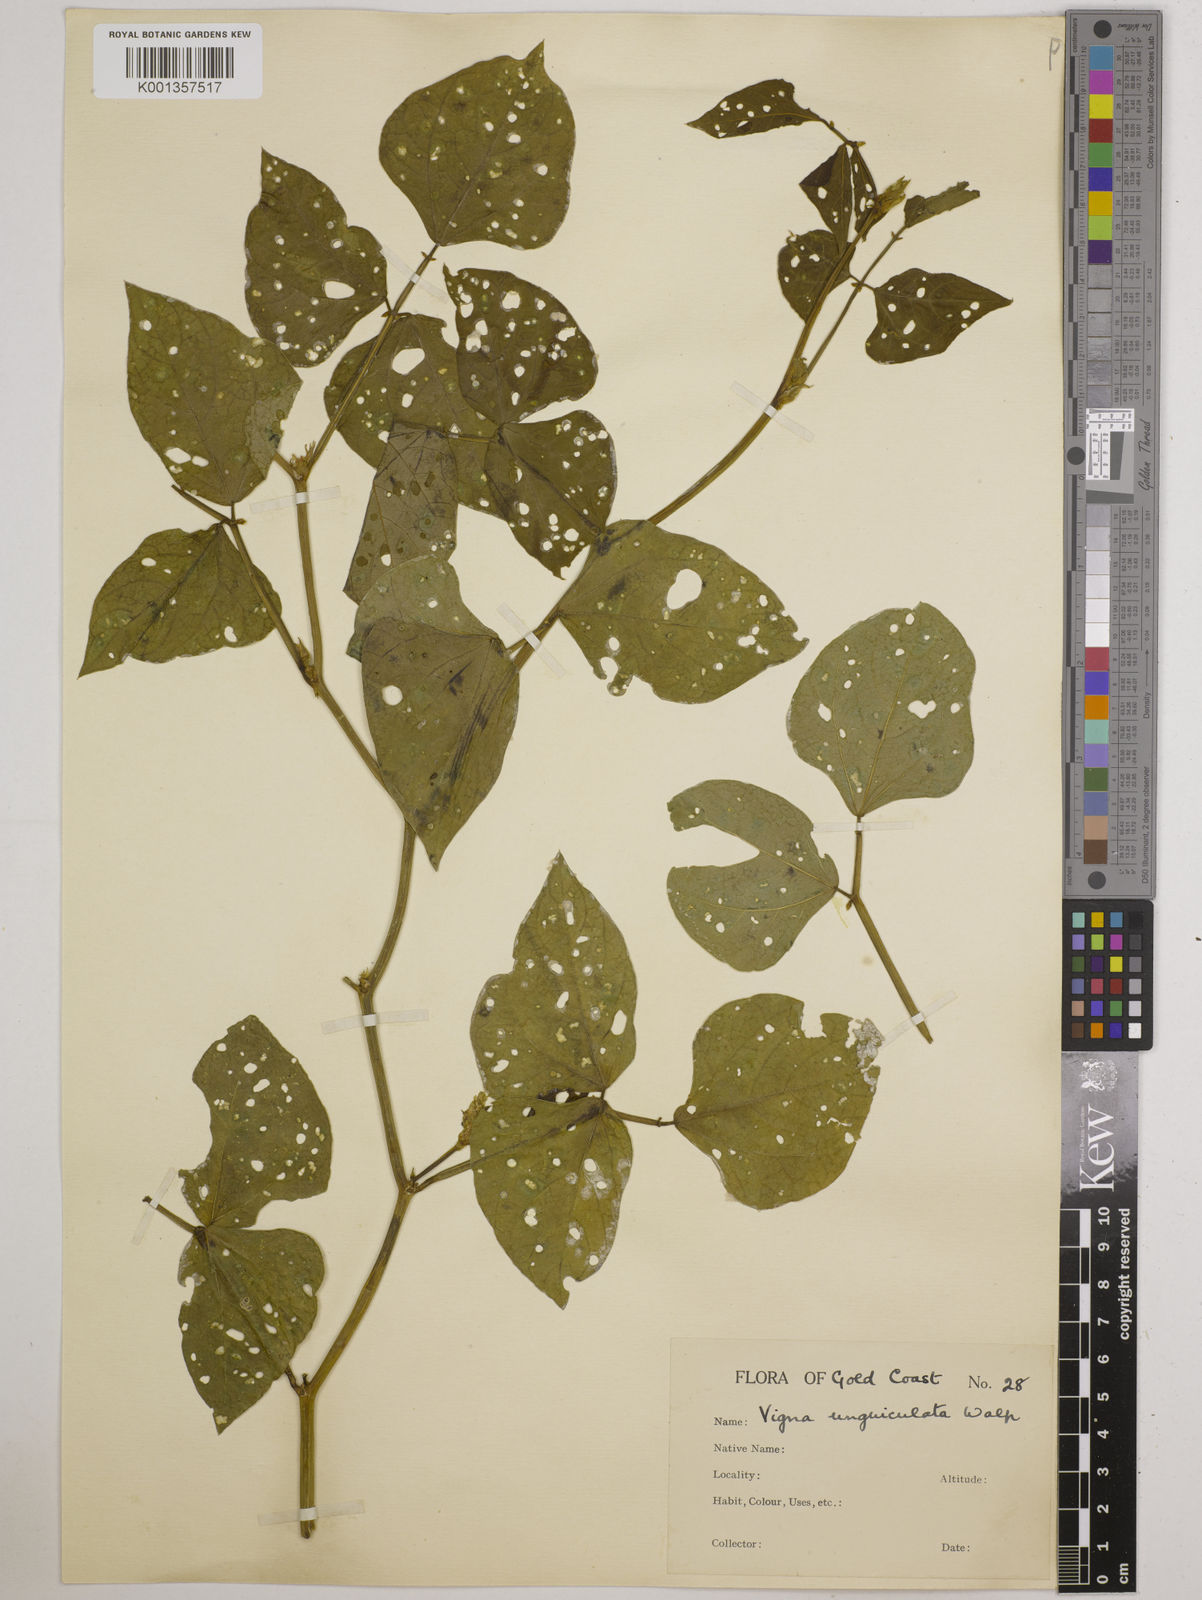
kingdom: Plantae
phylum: Tracheophyta
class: Magnoliopsida
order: Fabales
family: Fabaceae
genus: Vigna
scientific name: Vigna
